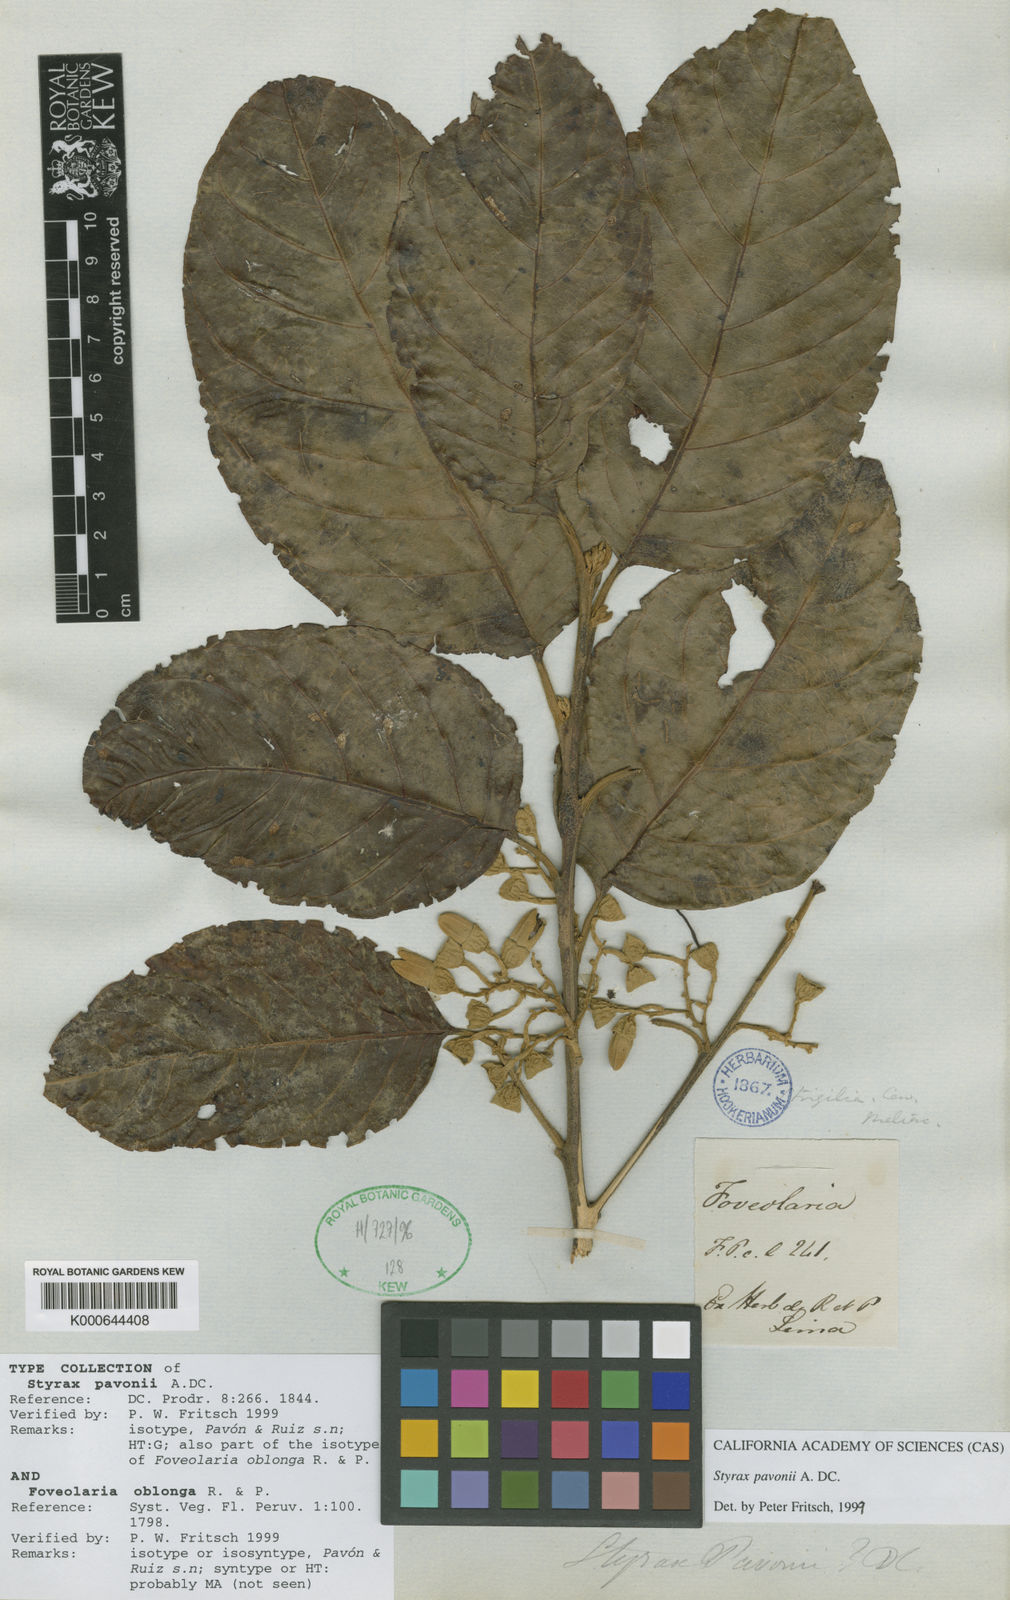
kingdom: Plantae
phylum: Tracheophyta
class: Magnoliopsida
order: Ericales
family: Styracaceae
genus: Styrax
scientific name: Styrax pavonii
